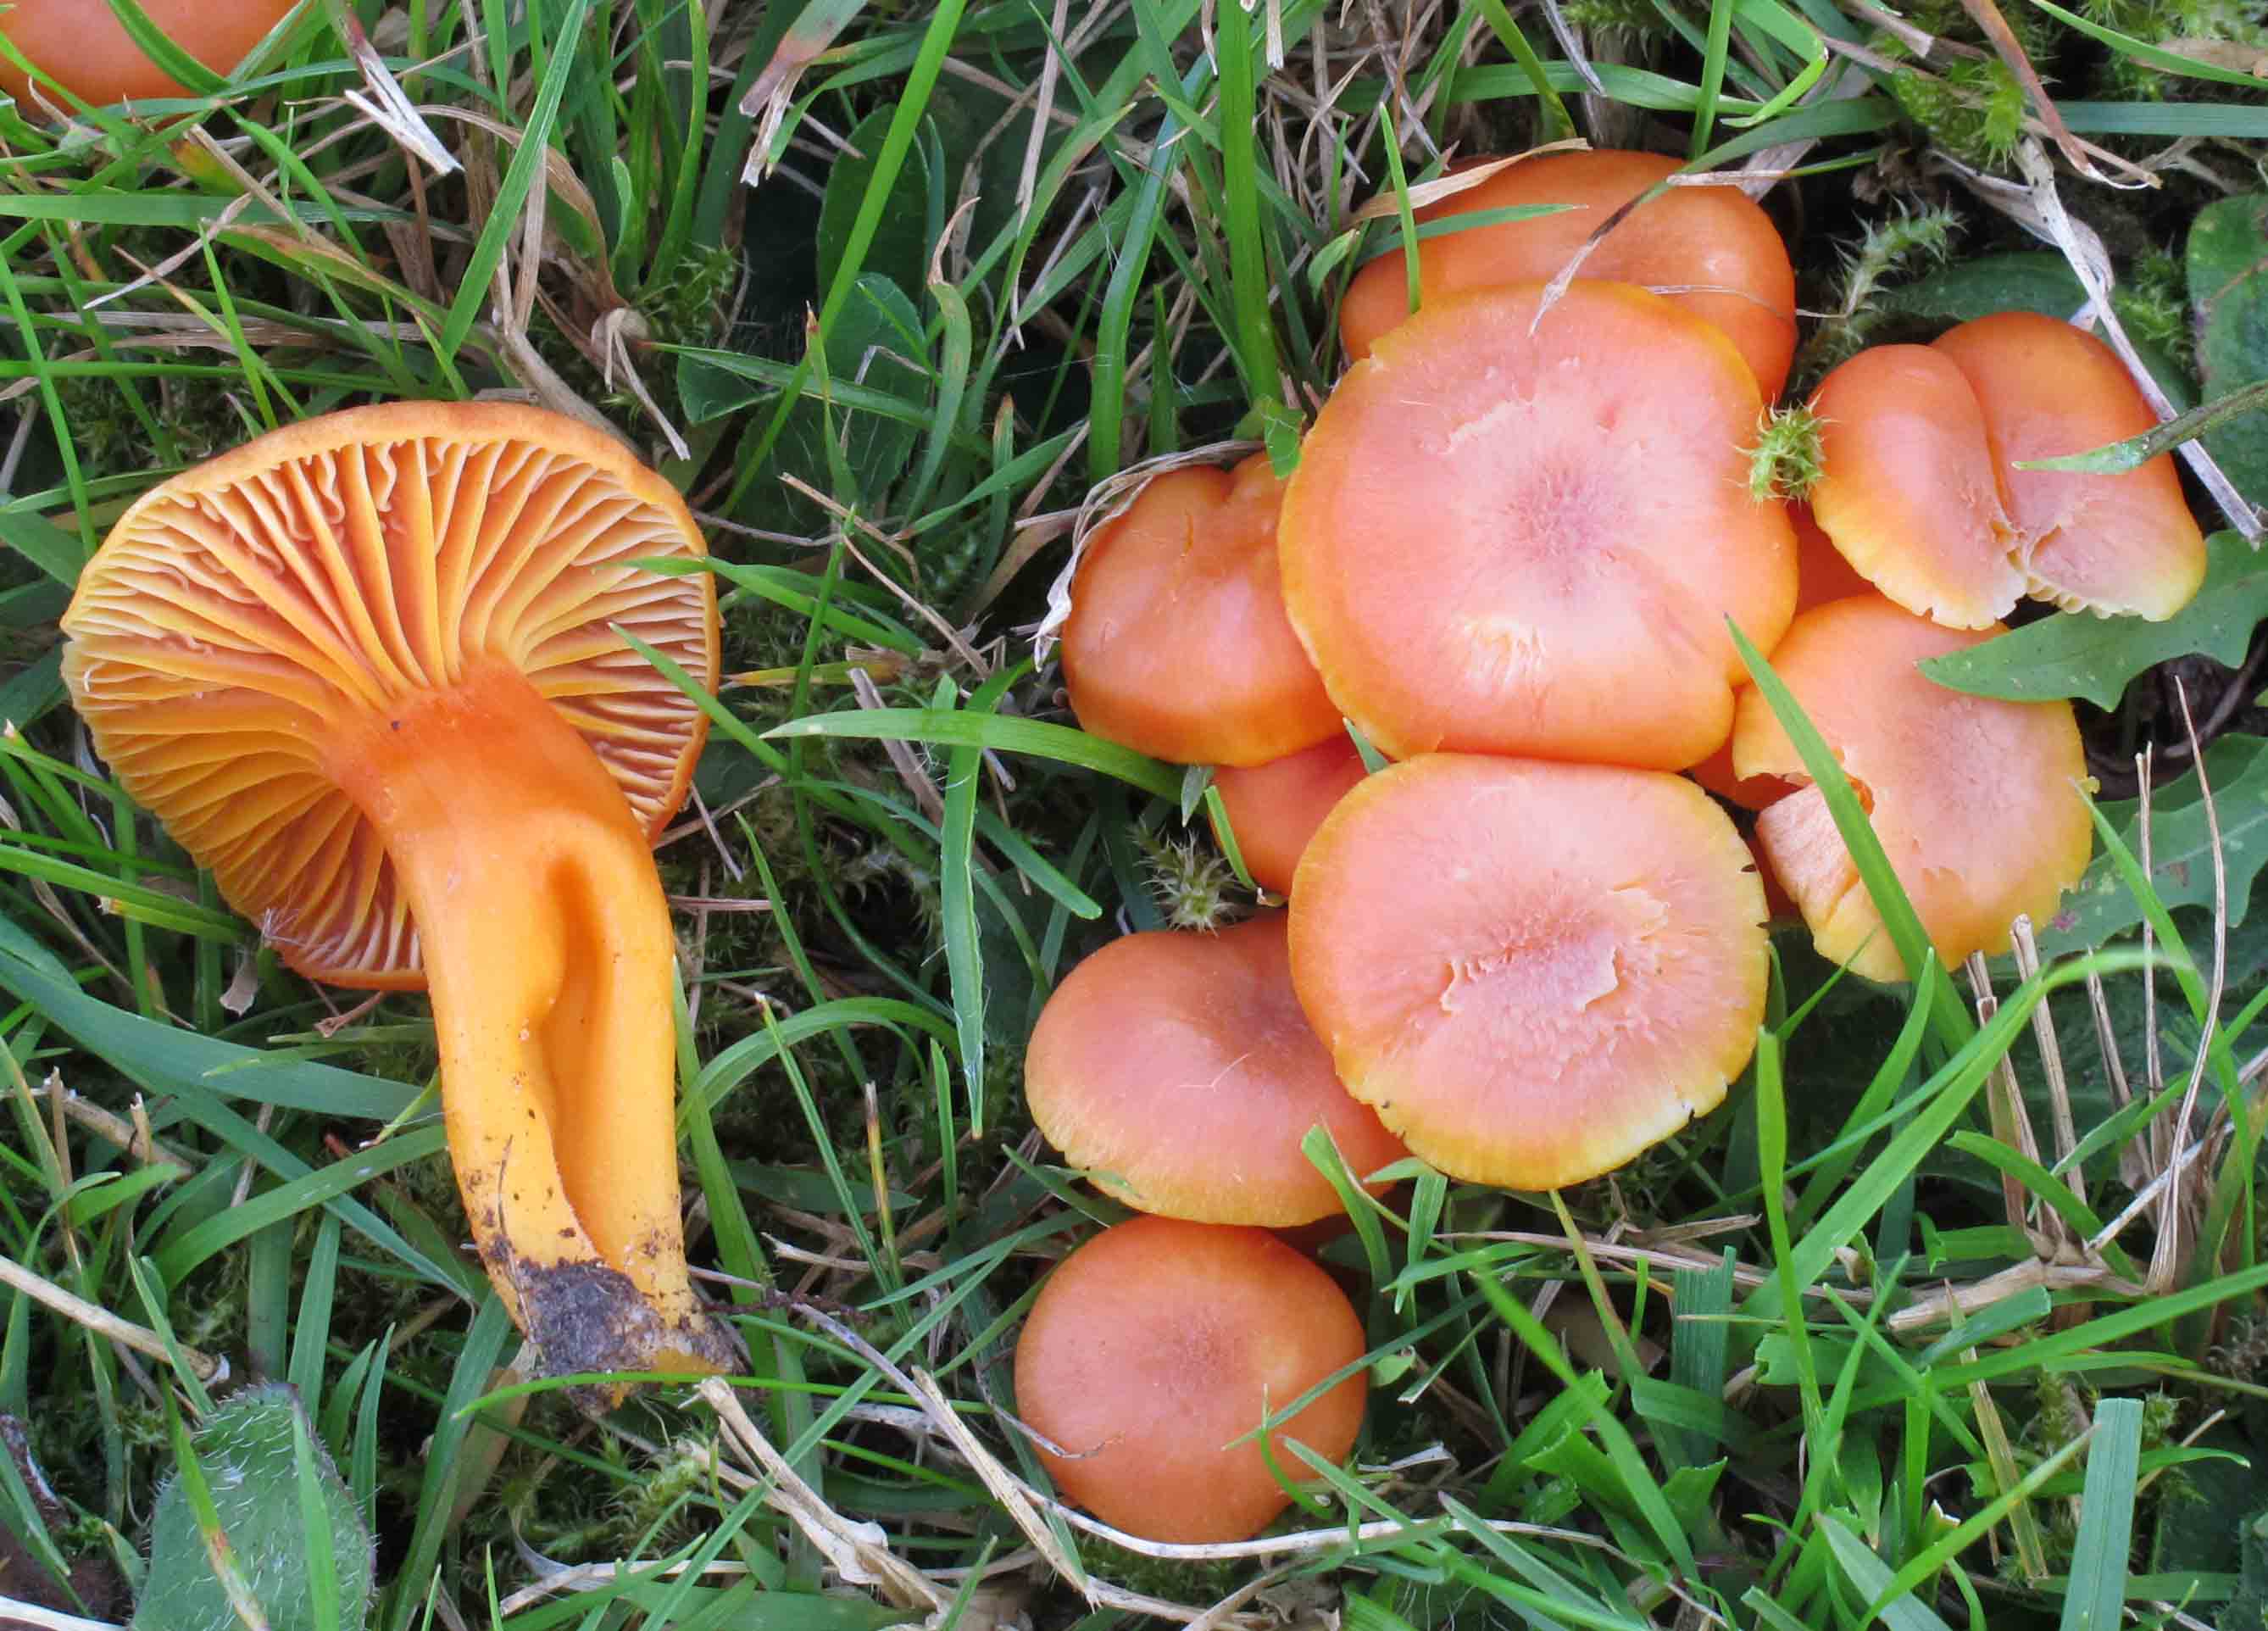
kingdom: Fungi
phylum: Basidiomycota
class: Agaricomycetes
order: Agaricales
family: Hygrophoraceae
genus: Hygrocybe
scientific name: Hygrocybe reidii
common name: honning-vokshat
